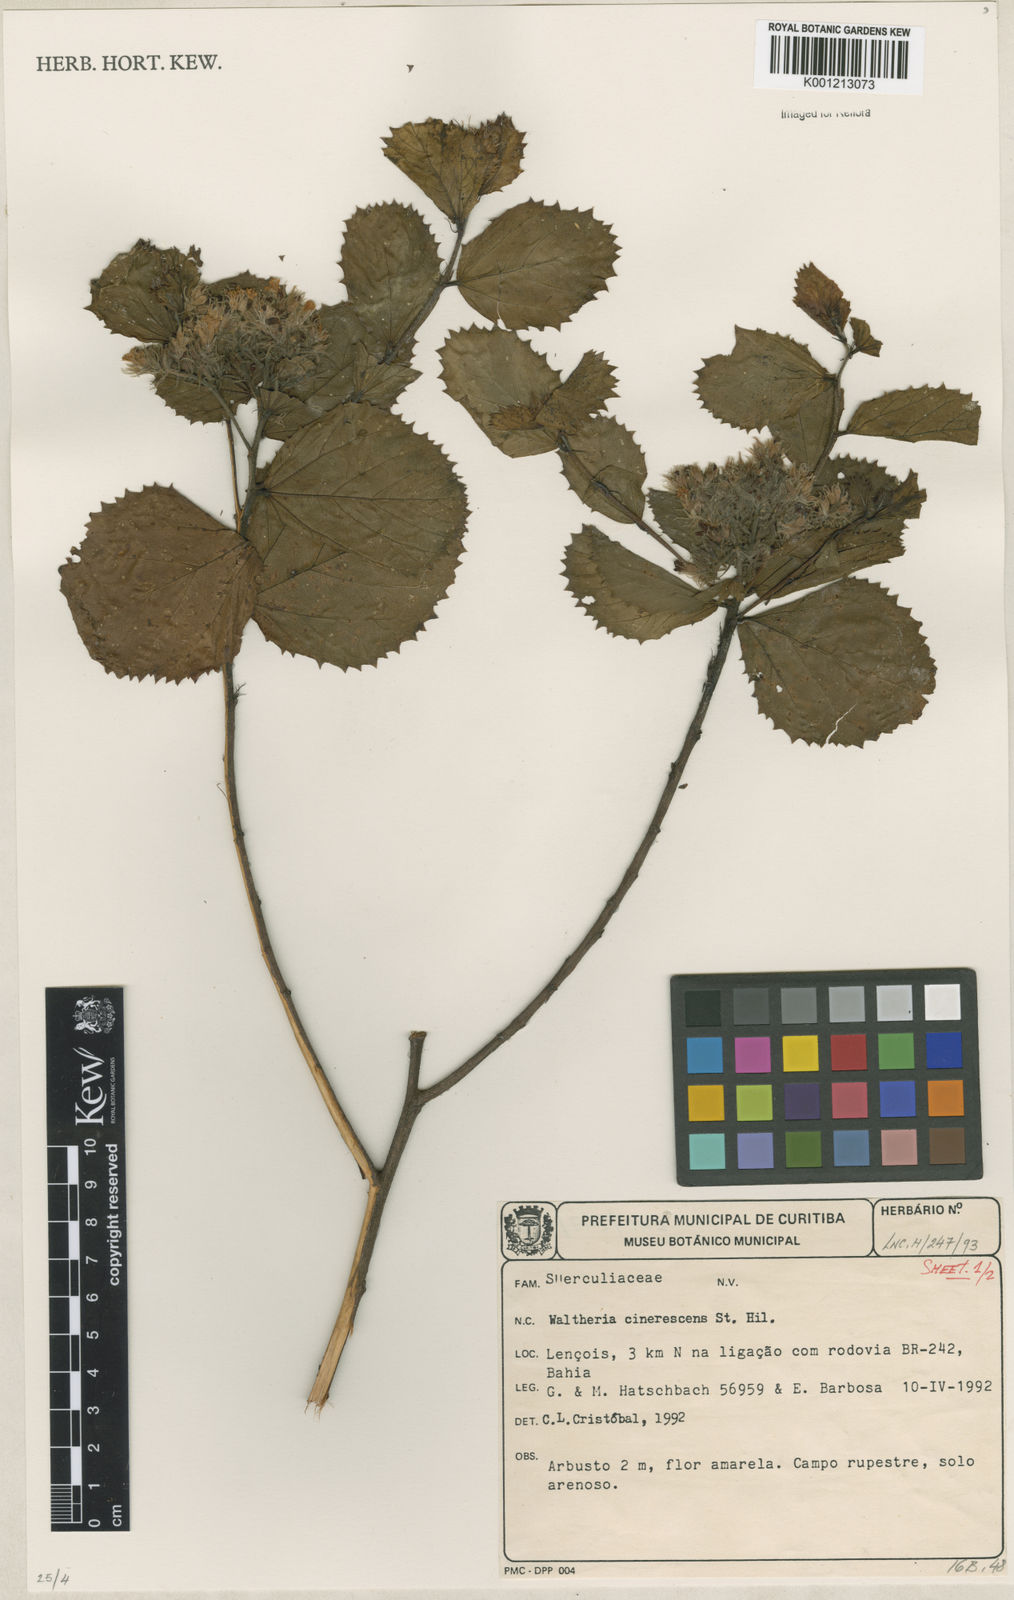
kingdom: Plantae
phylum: Tracheophyta
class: Magnoliopsida
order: Malvales
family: Malvaceae
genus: Waltheria
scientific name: Waltheria cinerescens
